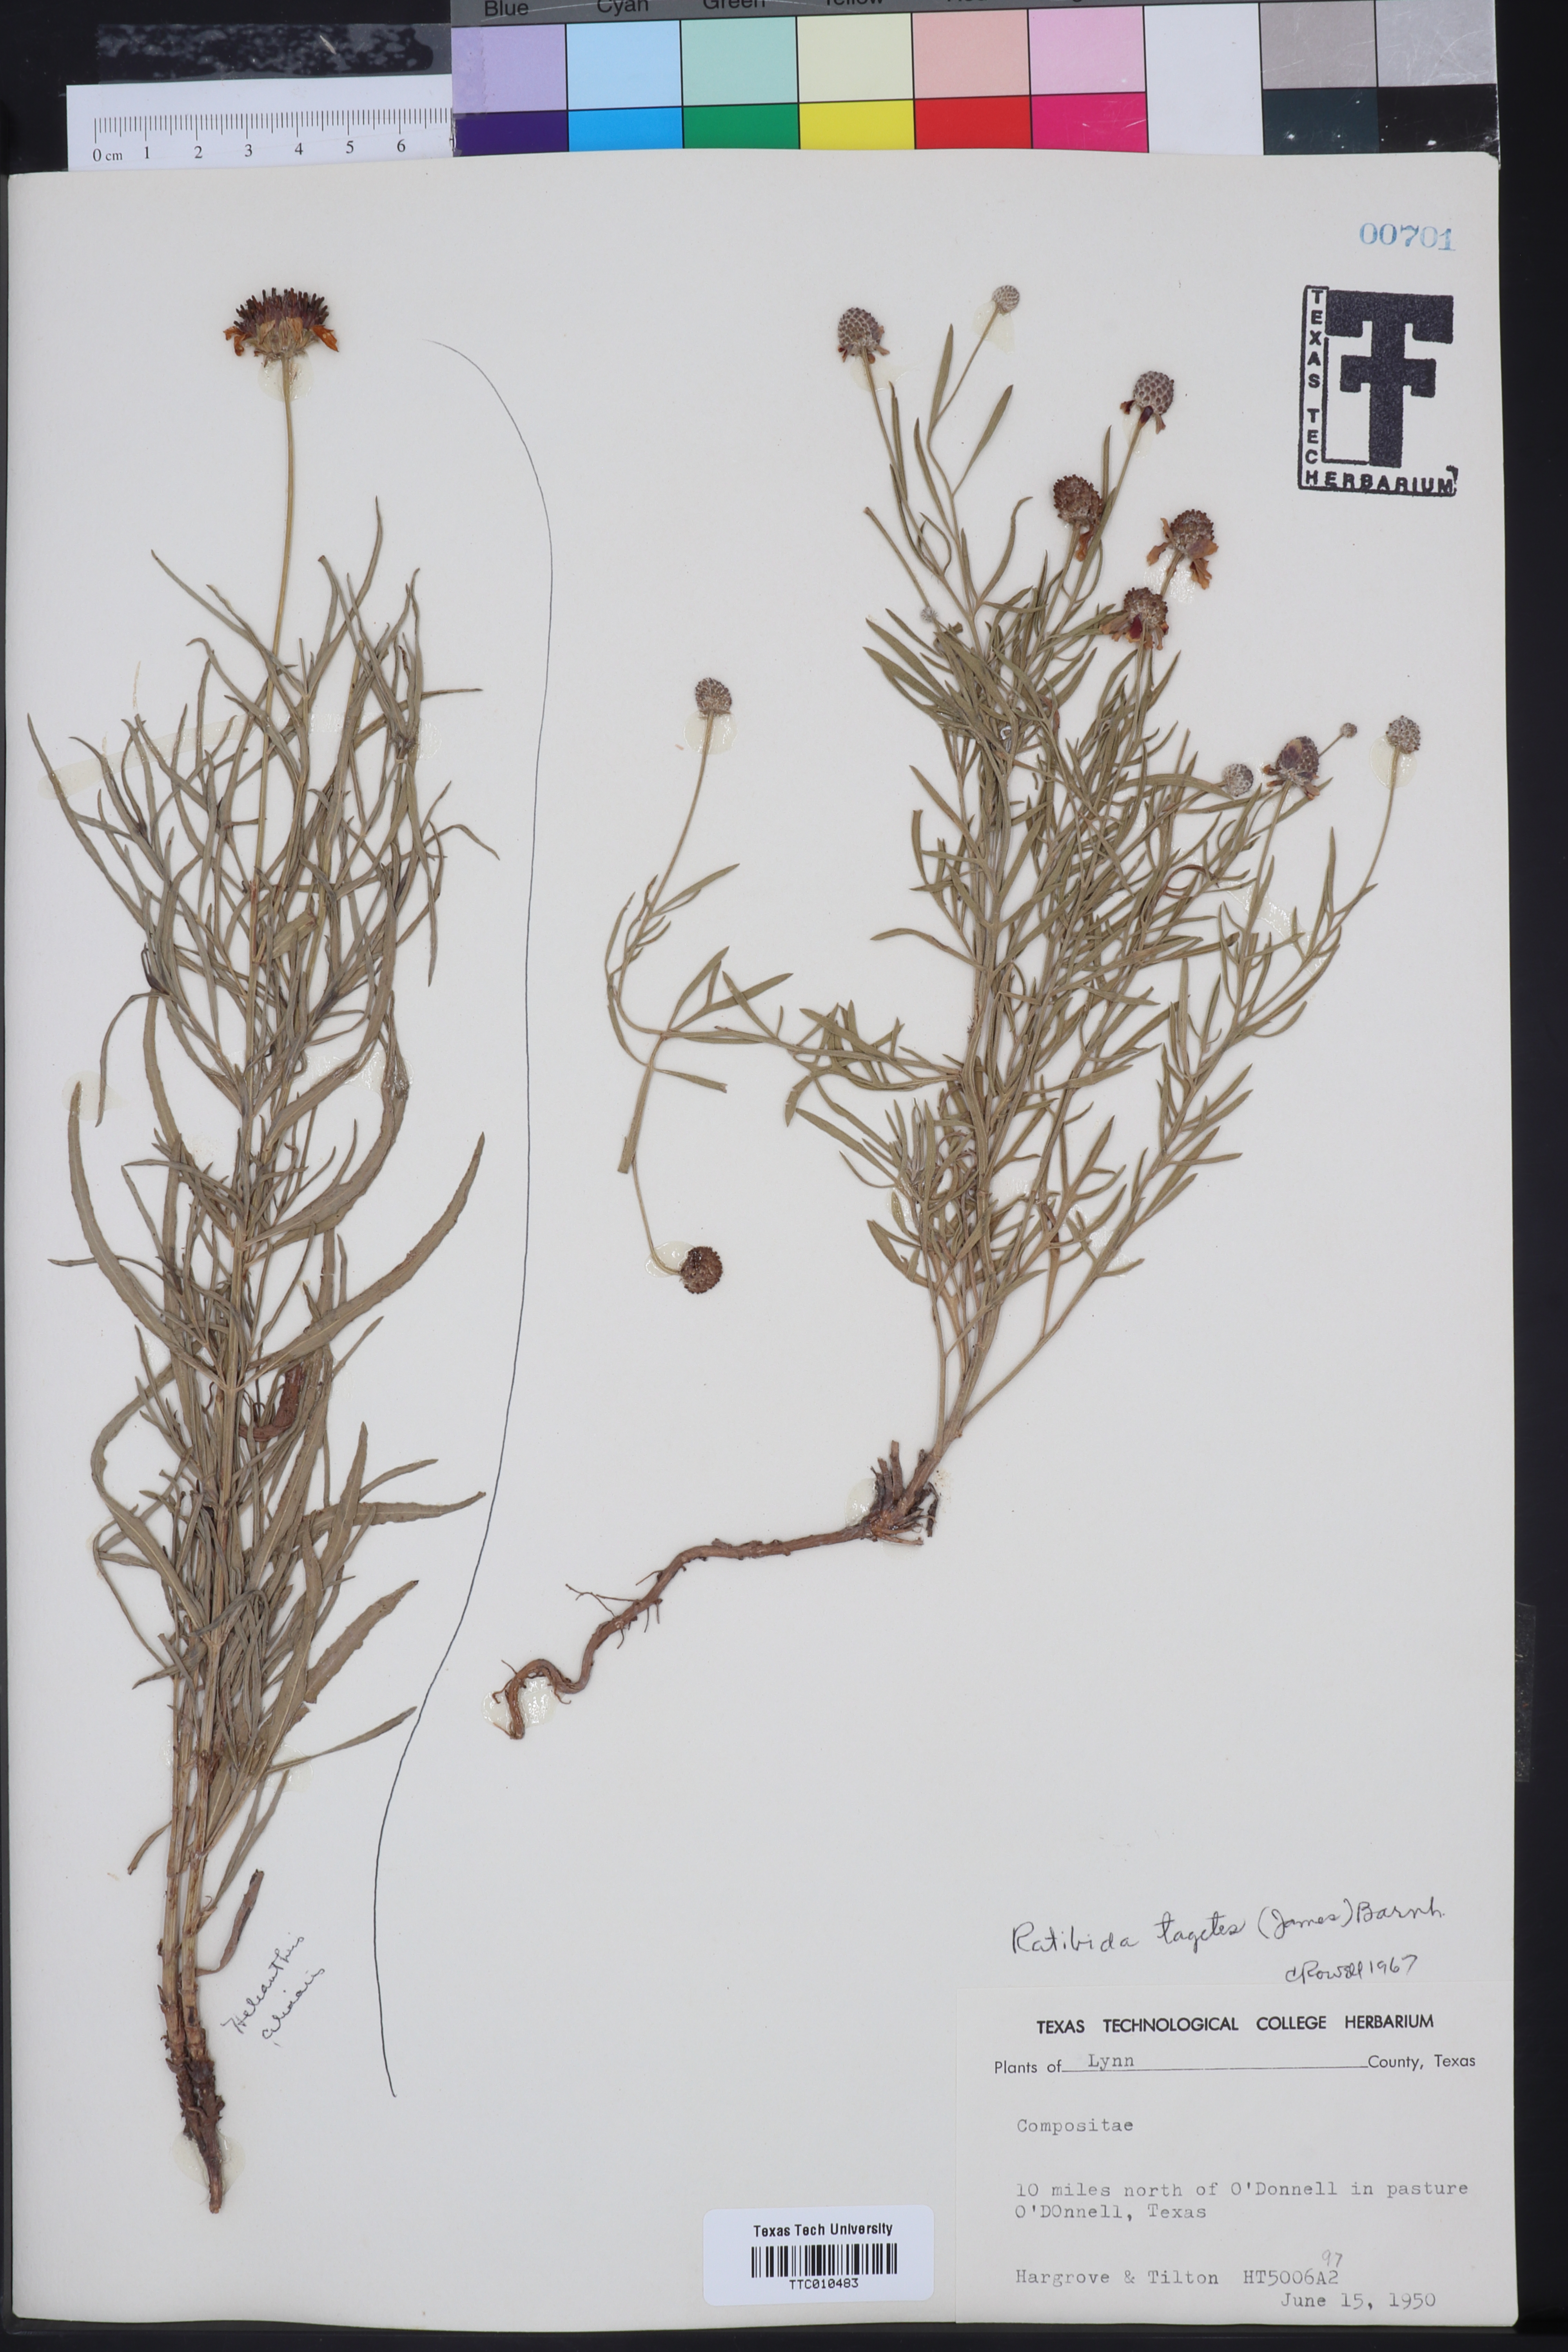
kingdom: Plantae
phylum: Tracheophyta
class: Magnoliopsida
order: Asterales
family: Asteraceae
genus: Ratibida
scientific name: Ratibida tagetes
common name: Green mexican-hat
